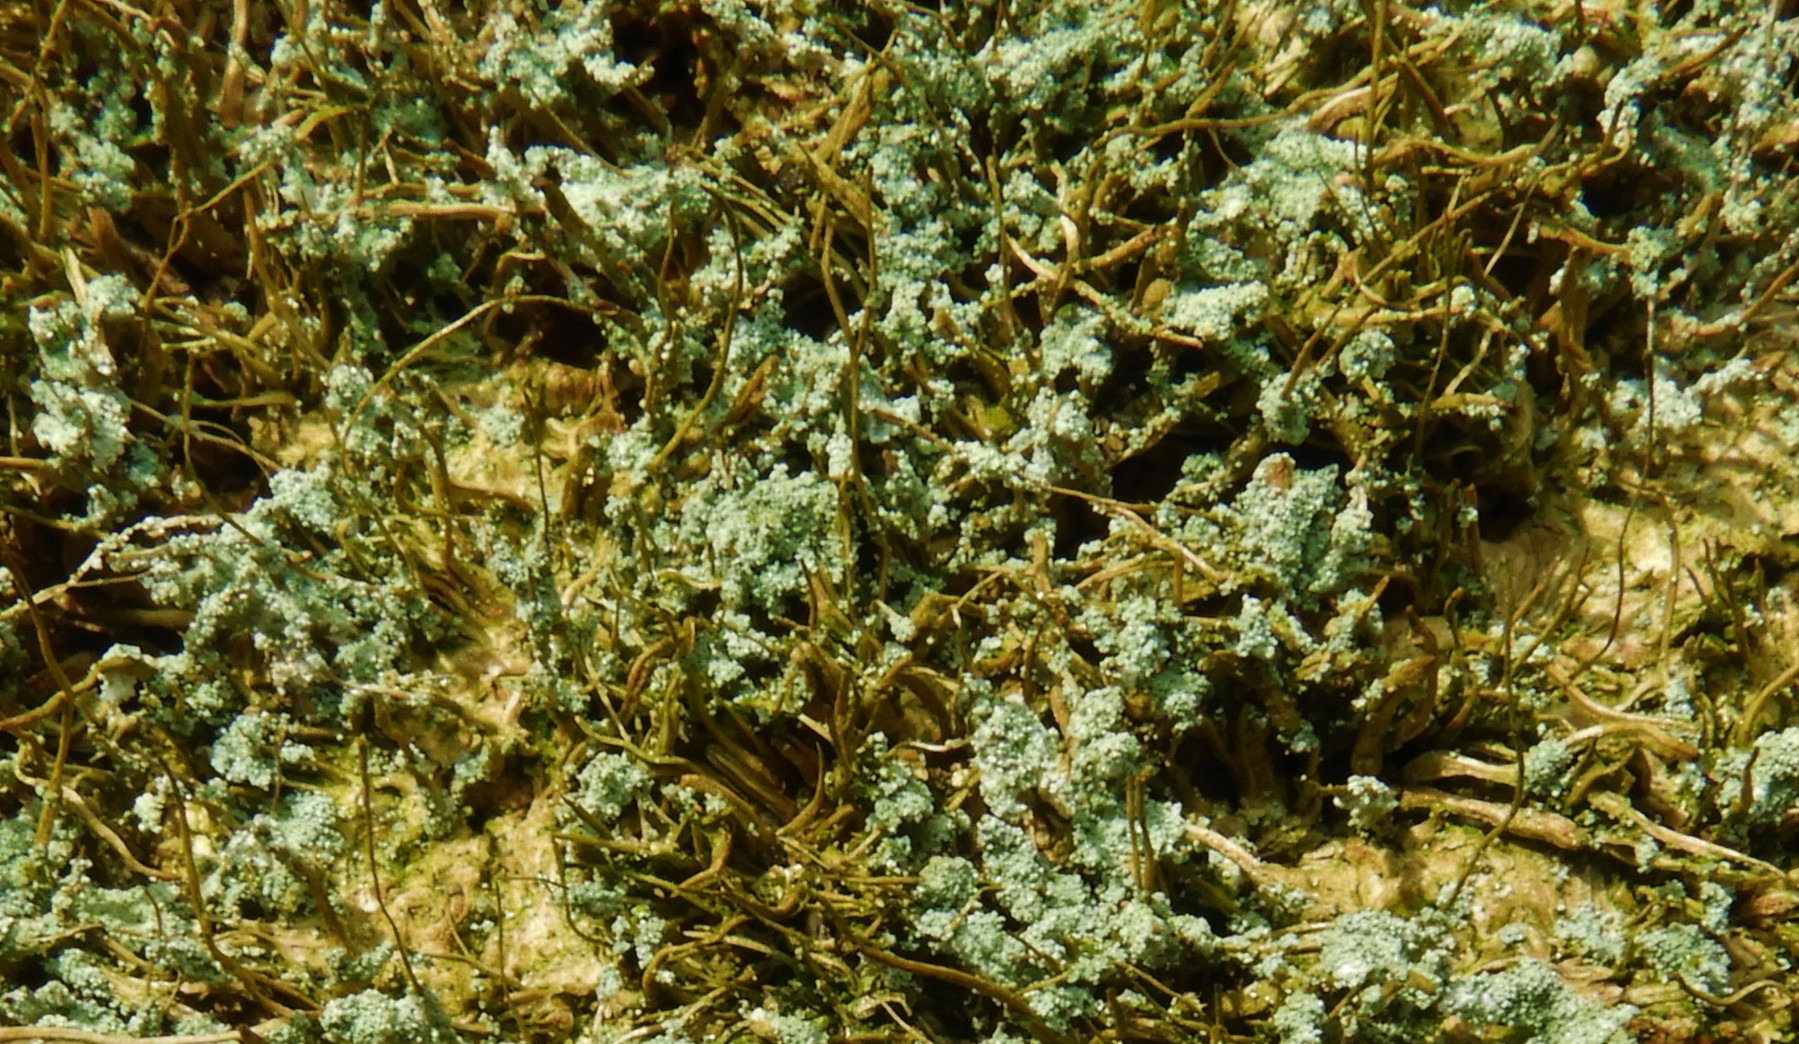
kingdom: Fungi
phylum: Ascomycota
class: Lecanoromycetes
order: Lecanorales
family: Stereocaulaceae
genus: Lepraria
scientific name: Lepraria
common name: støvlav
